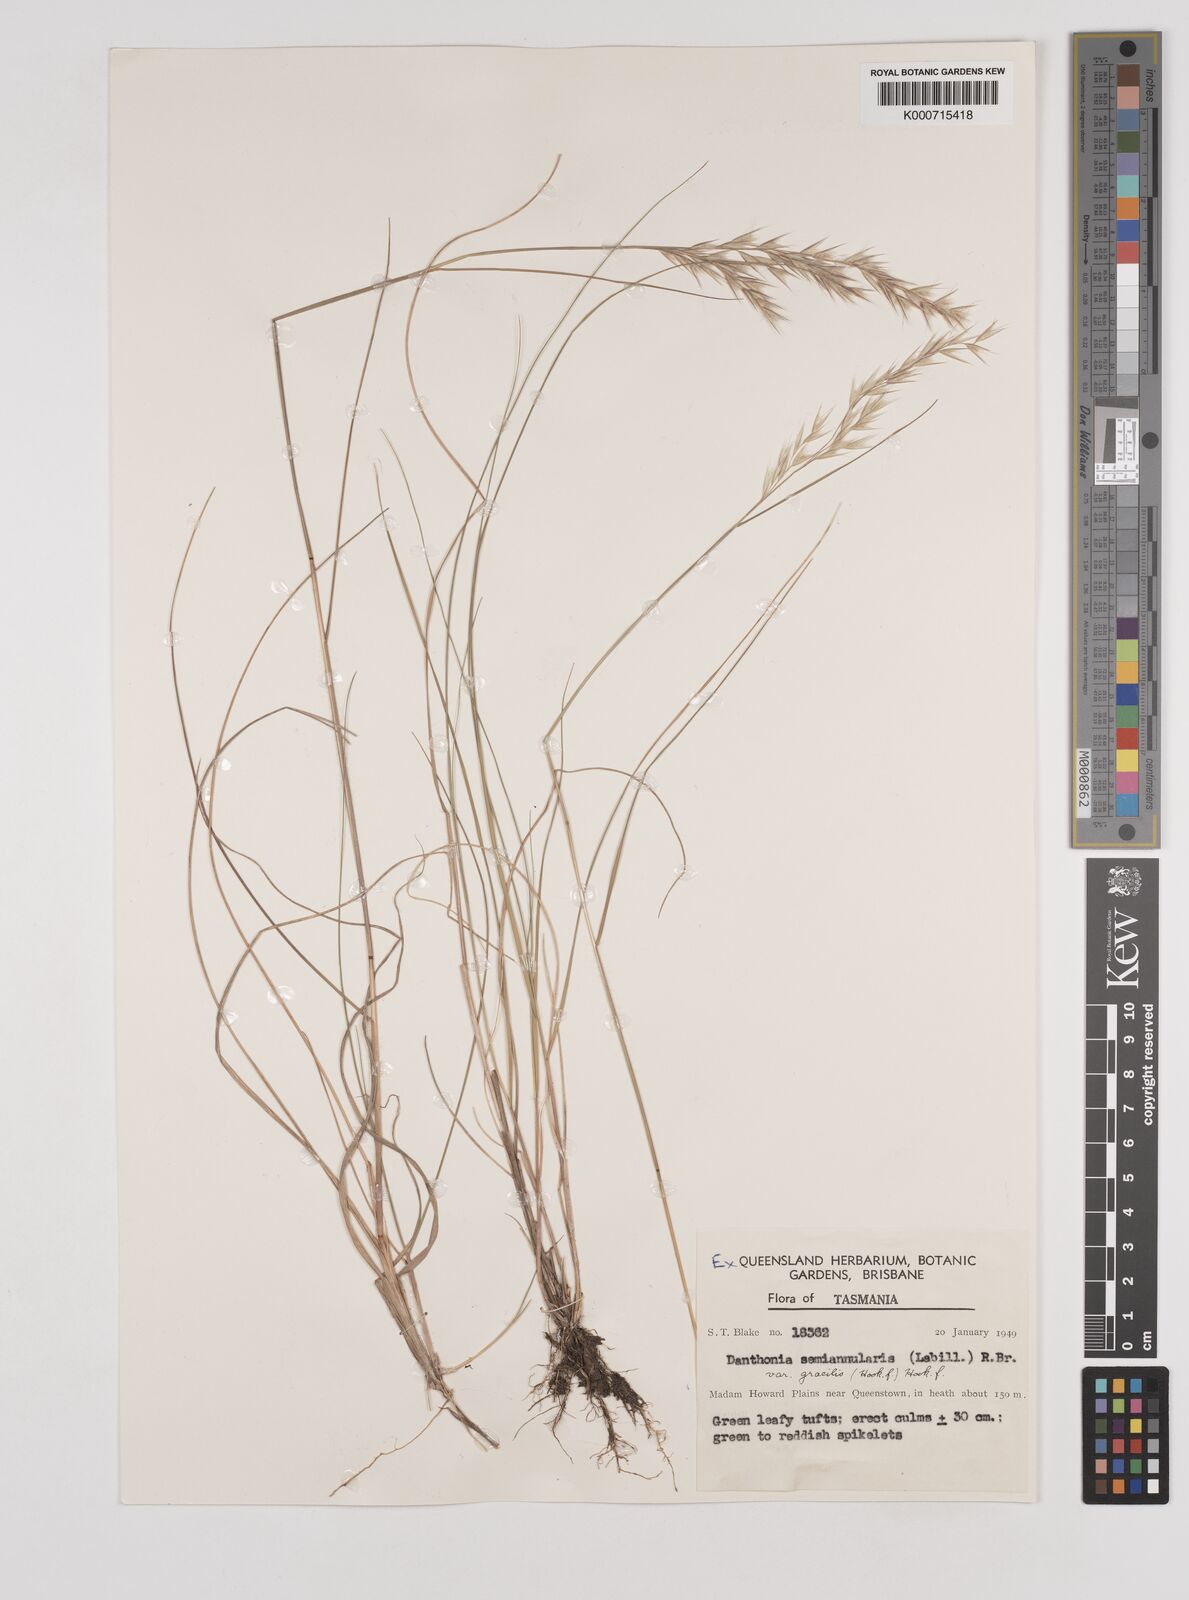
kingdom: Plantae
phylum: Tracheophyta
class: Liliopsida
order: Poales
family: Poaceae
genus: Rytidosperma
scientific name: Rytidosperma semiannulare
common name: Tasmanian wallaby grass
